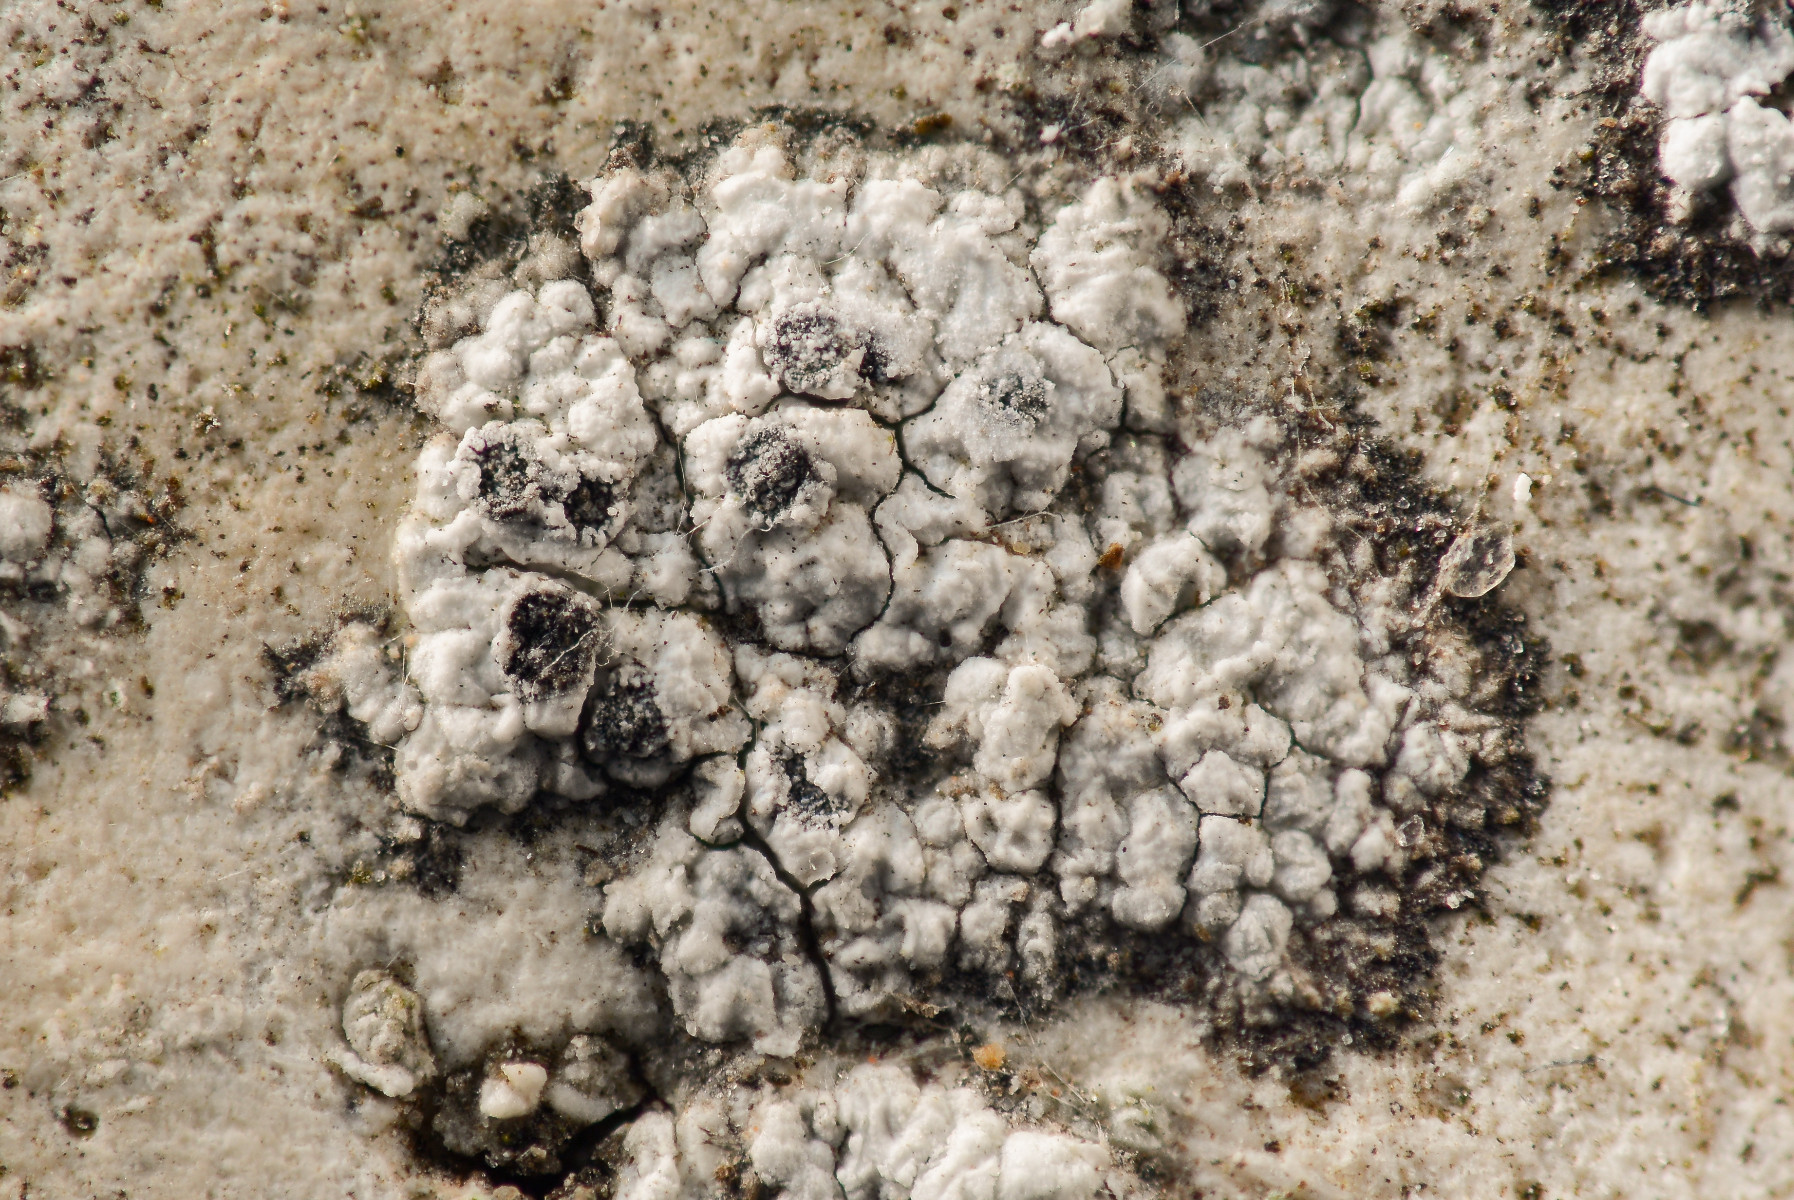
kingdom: Fungi
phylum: Ascomycota
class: Lecanoromycetes
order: Lecanorales
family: Parmeliaceae
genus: Lichen
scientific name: Lichen
